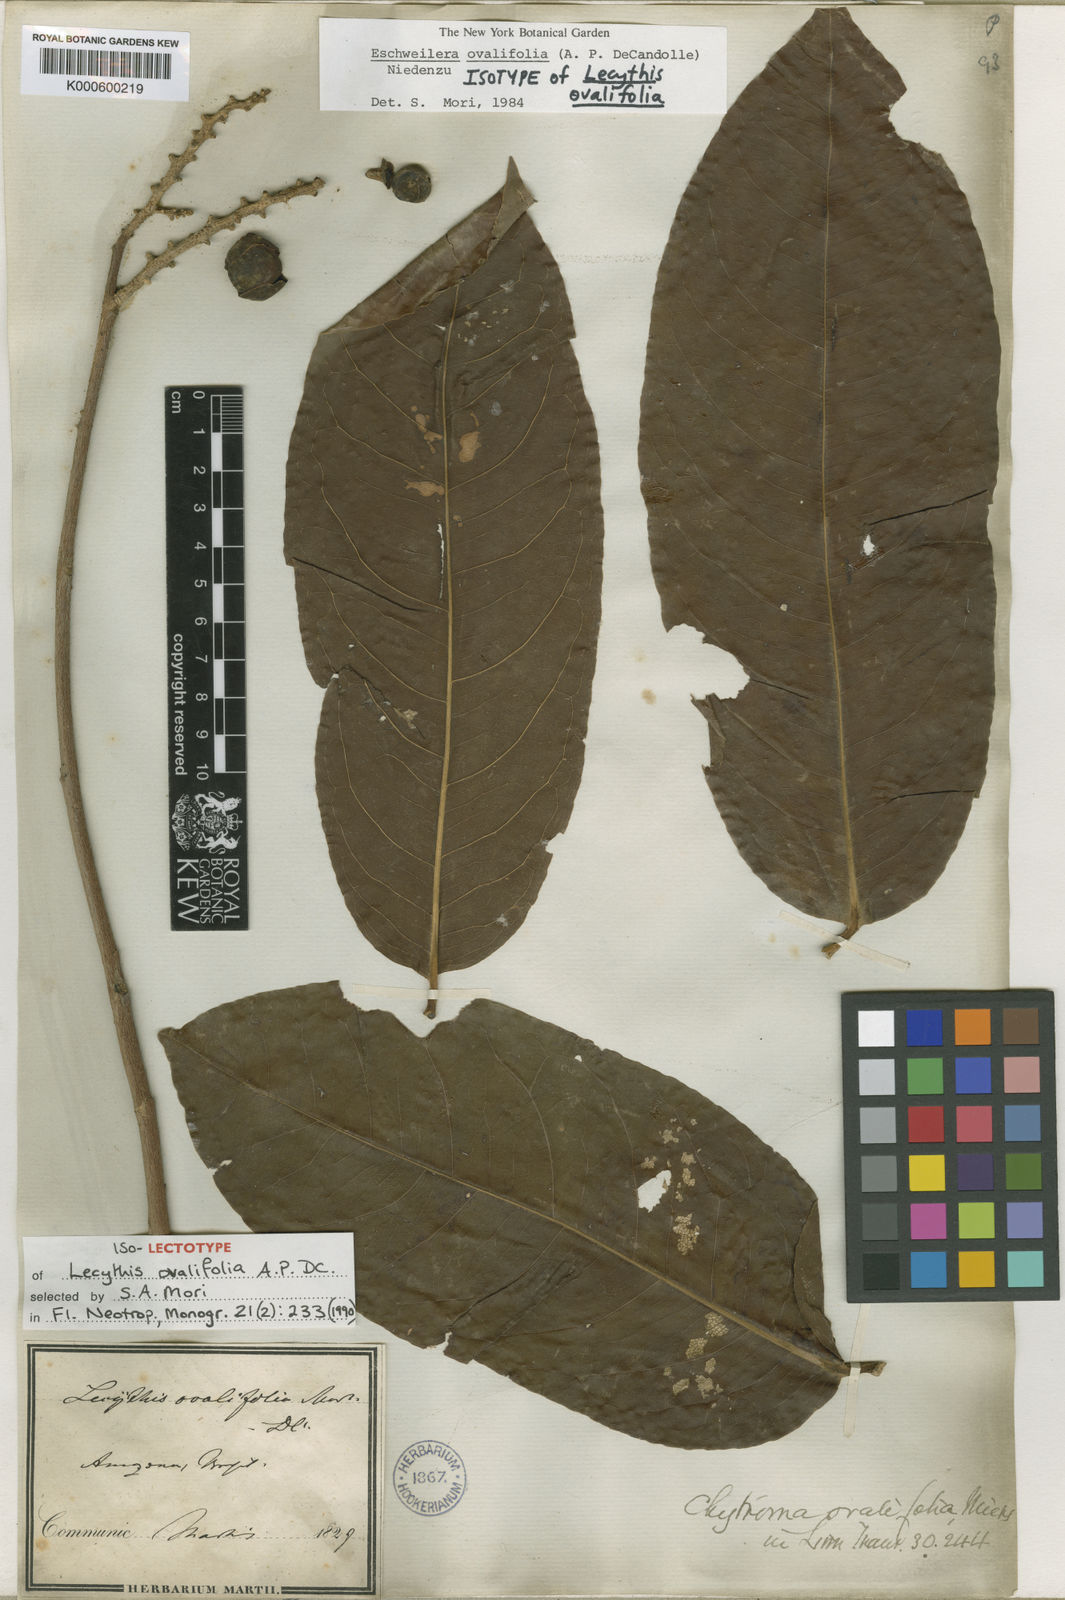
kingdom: Plantae
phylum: Tracheophyta
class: Magnoliopsida
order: Ericales
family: Lecythidaceae
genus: Eschweilera
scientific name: Eschweilera ovalifolia
